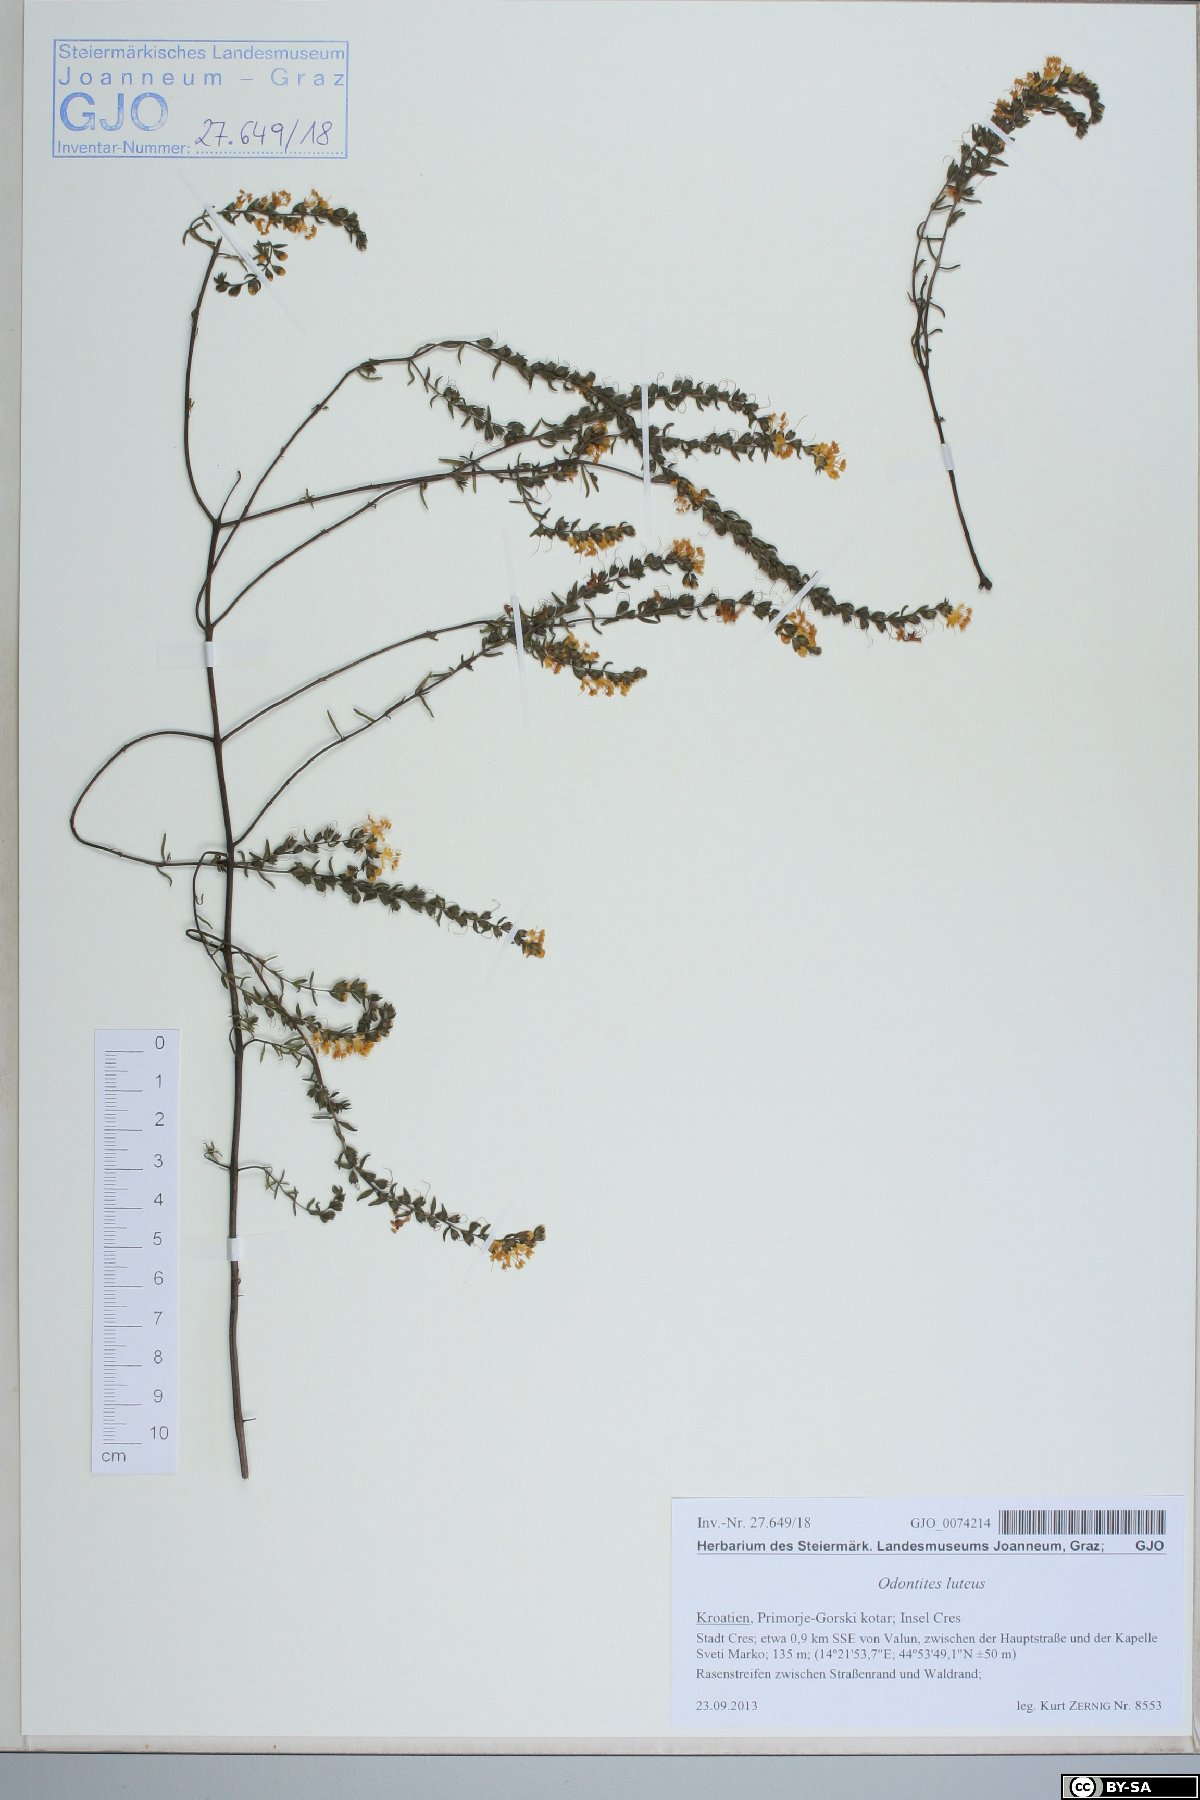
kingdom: Plantae
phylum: Tracheophyta
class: Magnoliopsida
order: Lamiales
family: Orobanchaceae
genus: Odontites
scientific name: Odontites luteus
